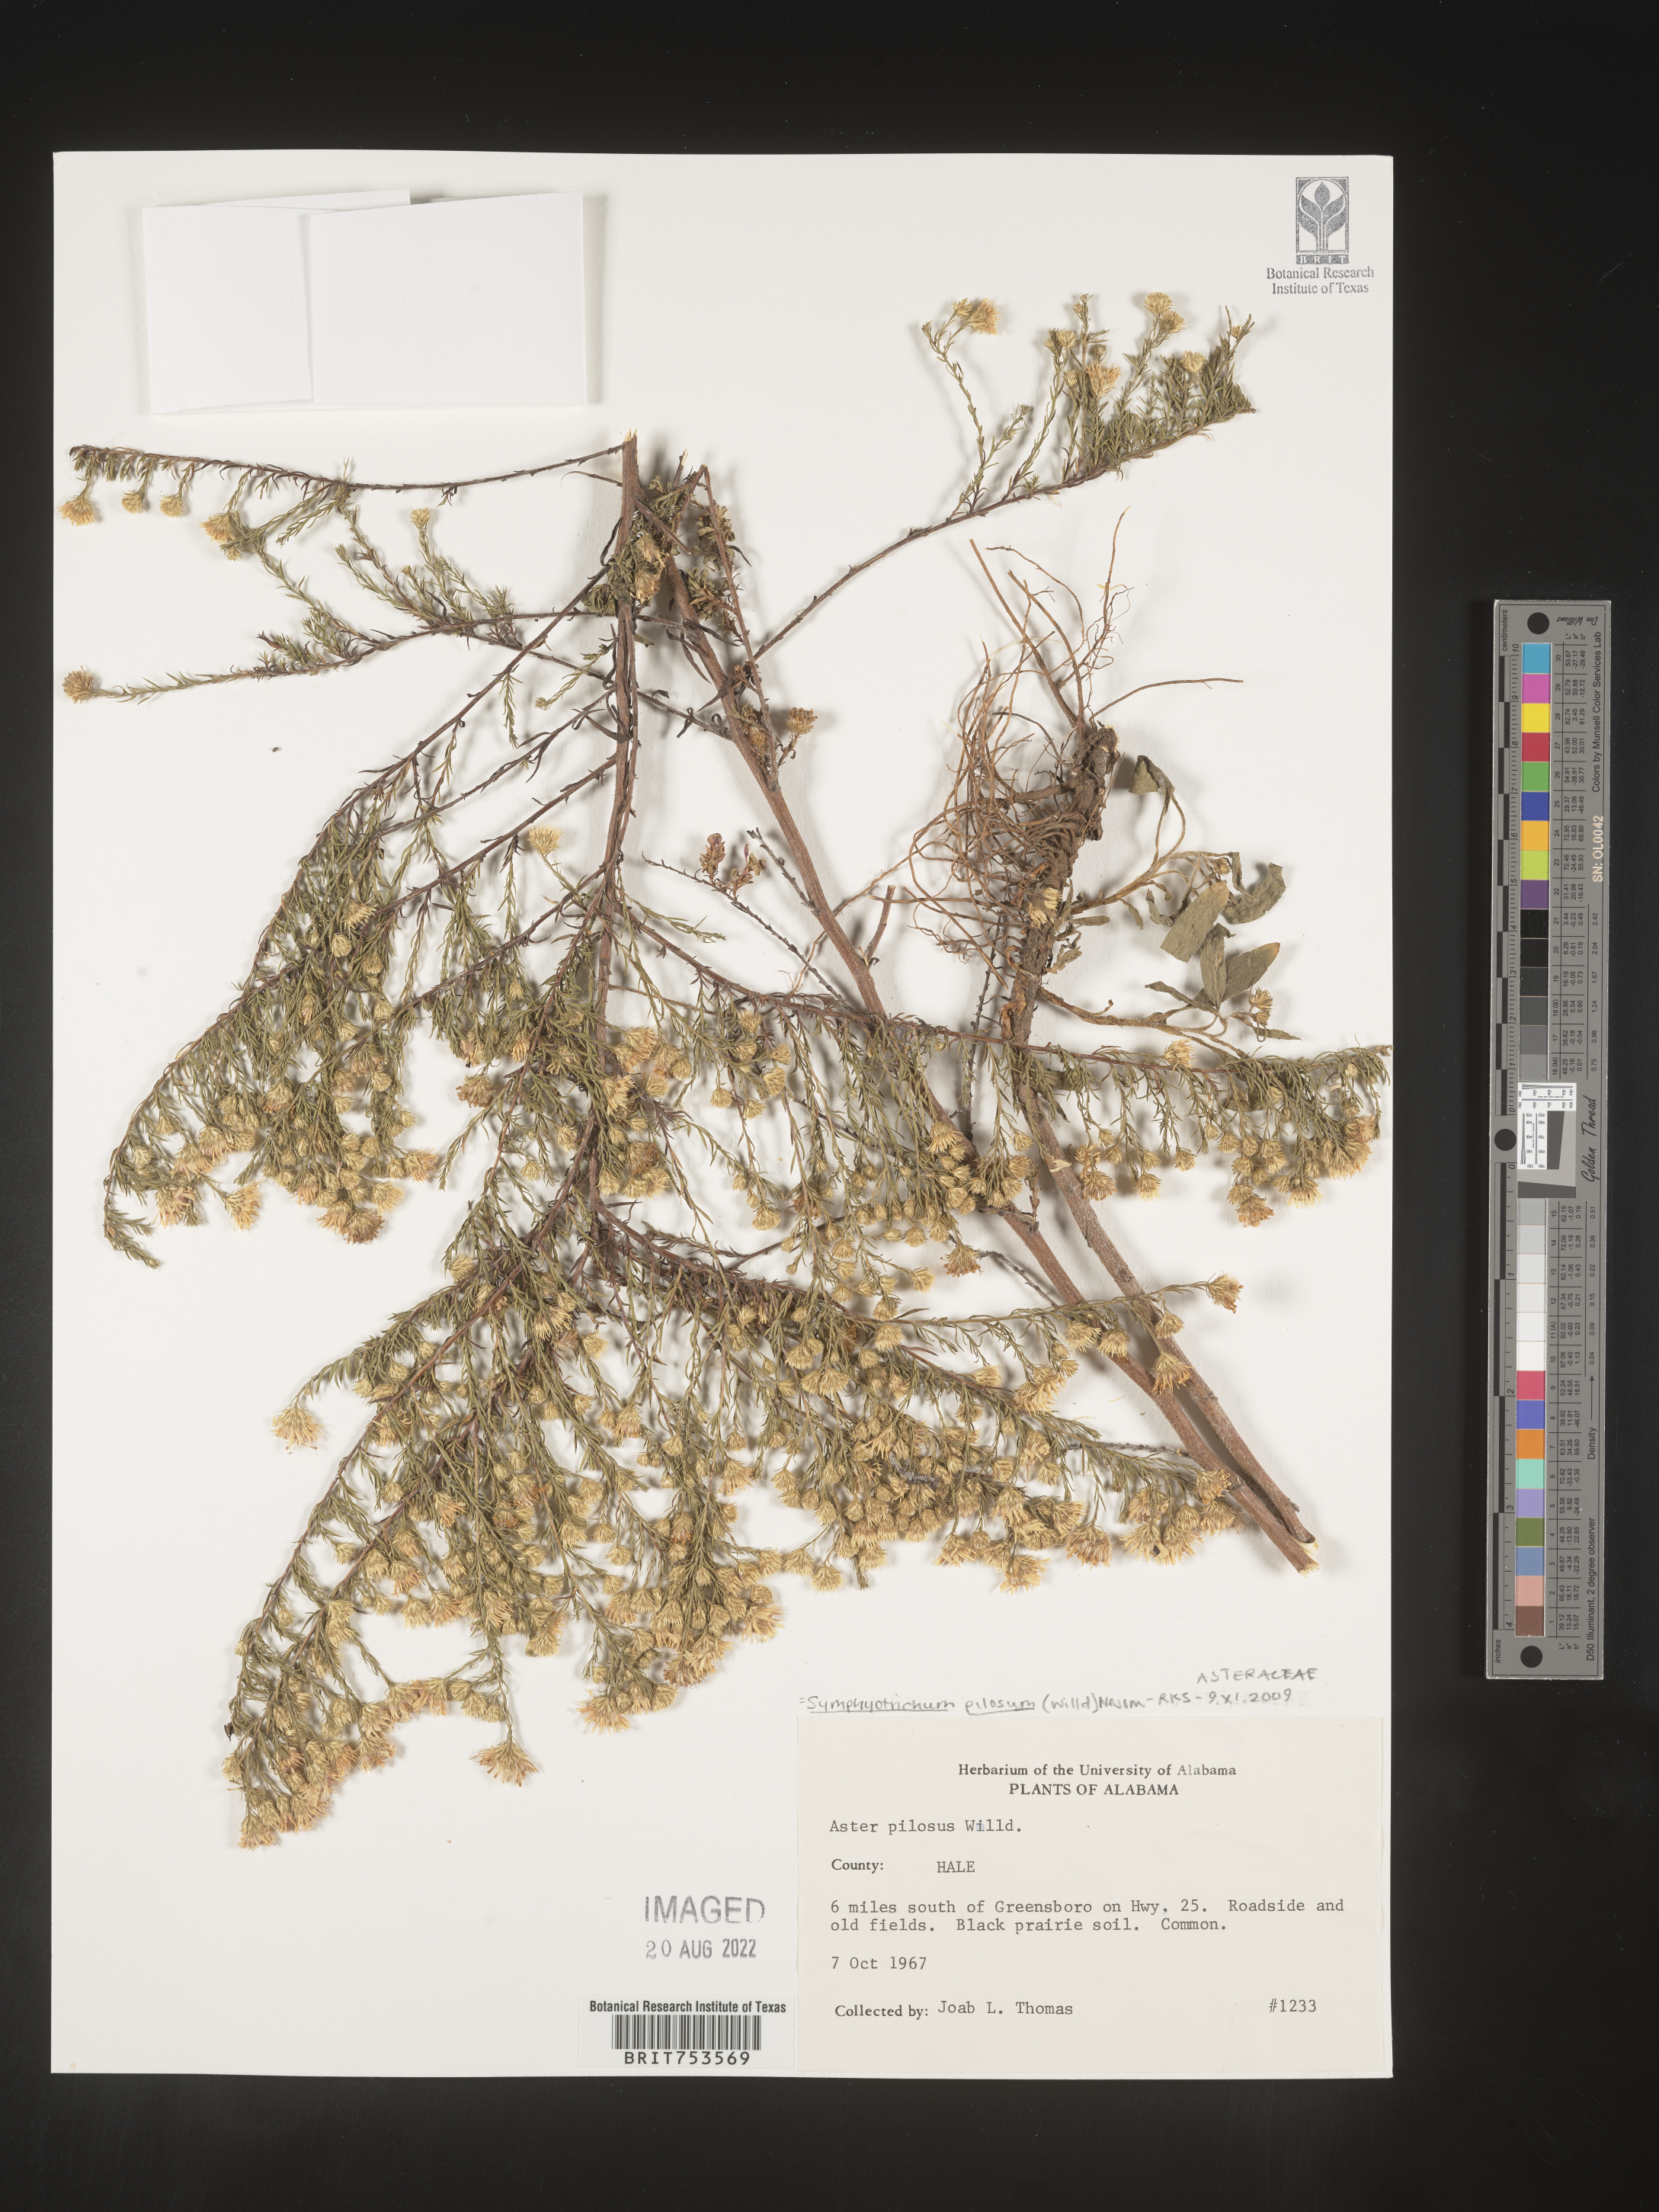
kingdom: Plantae
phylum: Tracheophyta
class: Magnoliopsida
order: Asterales
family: Asteraceae
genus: Symphyotrichum
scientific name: Symphyotrichum pilosum
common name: Awl aster
